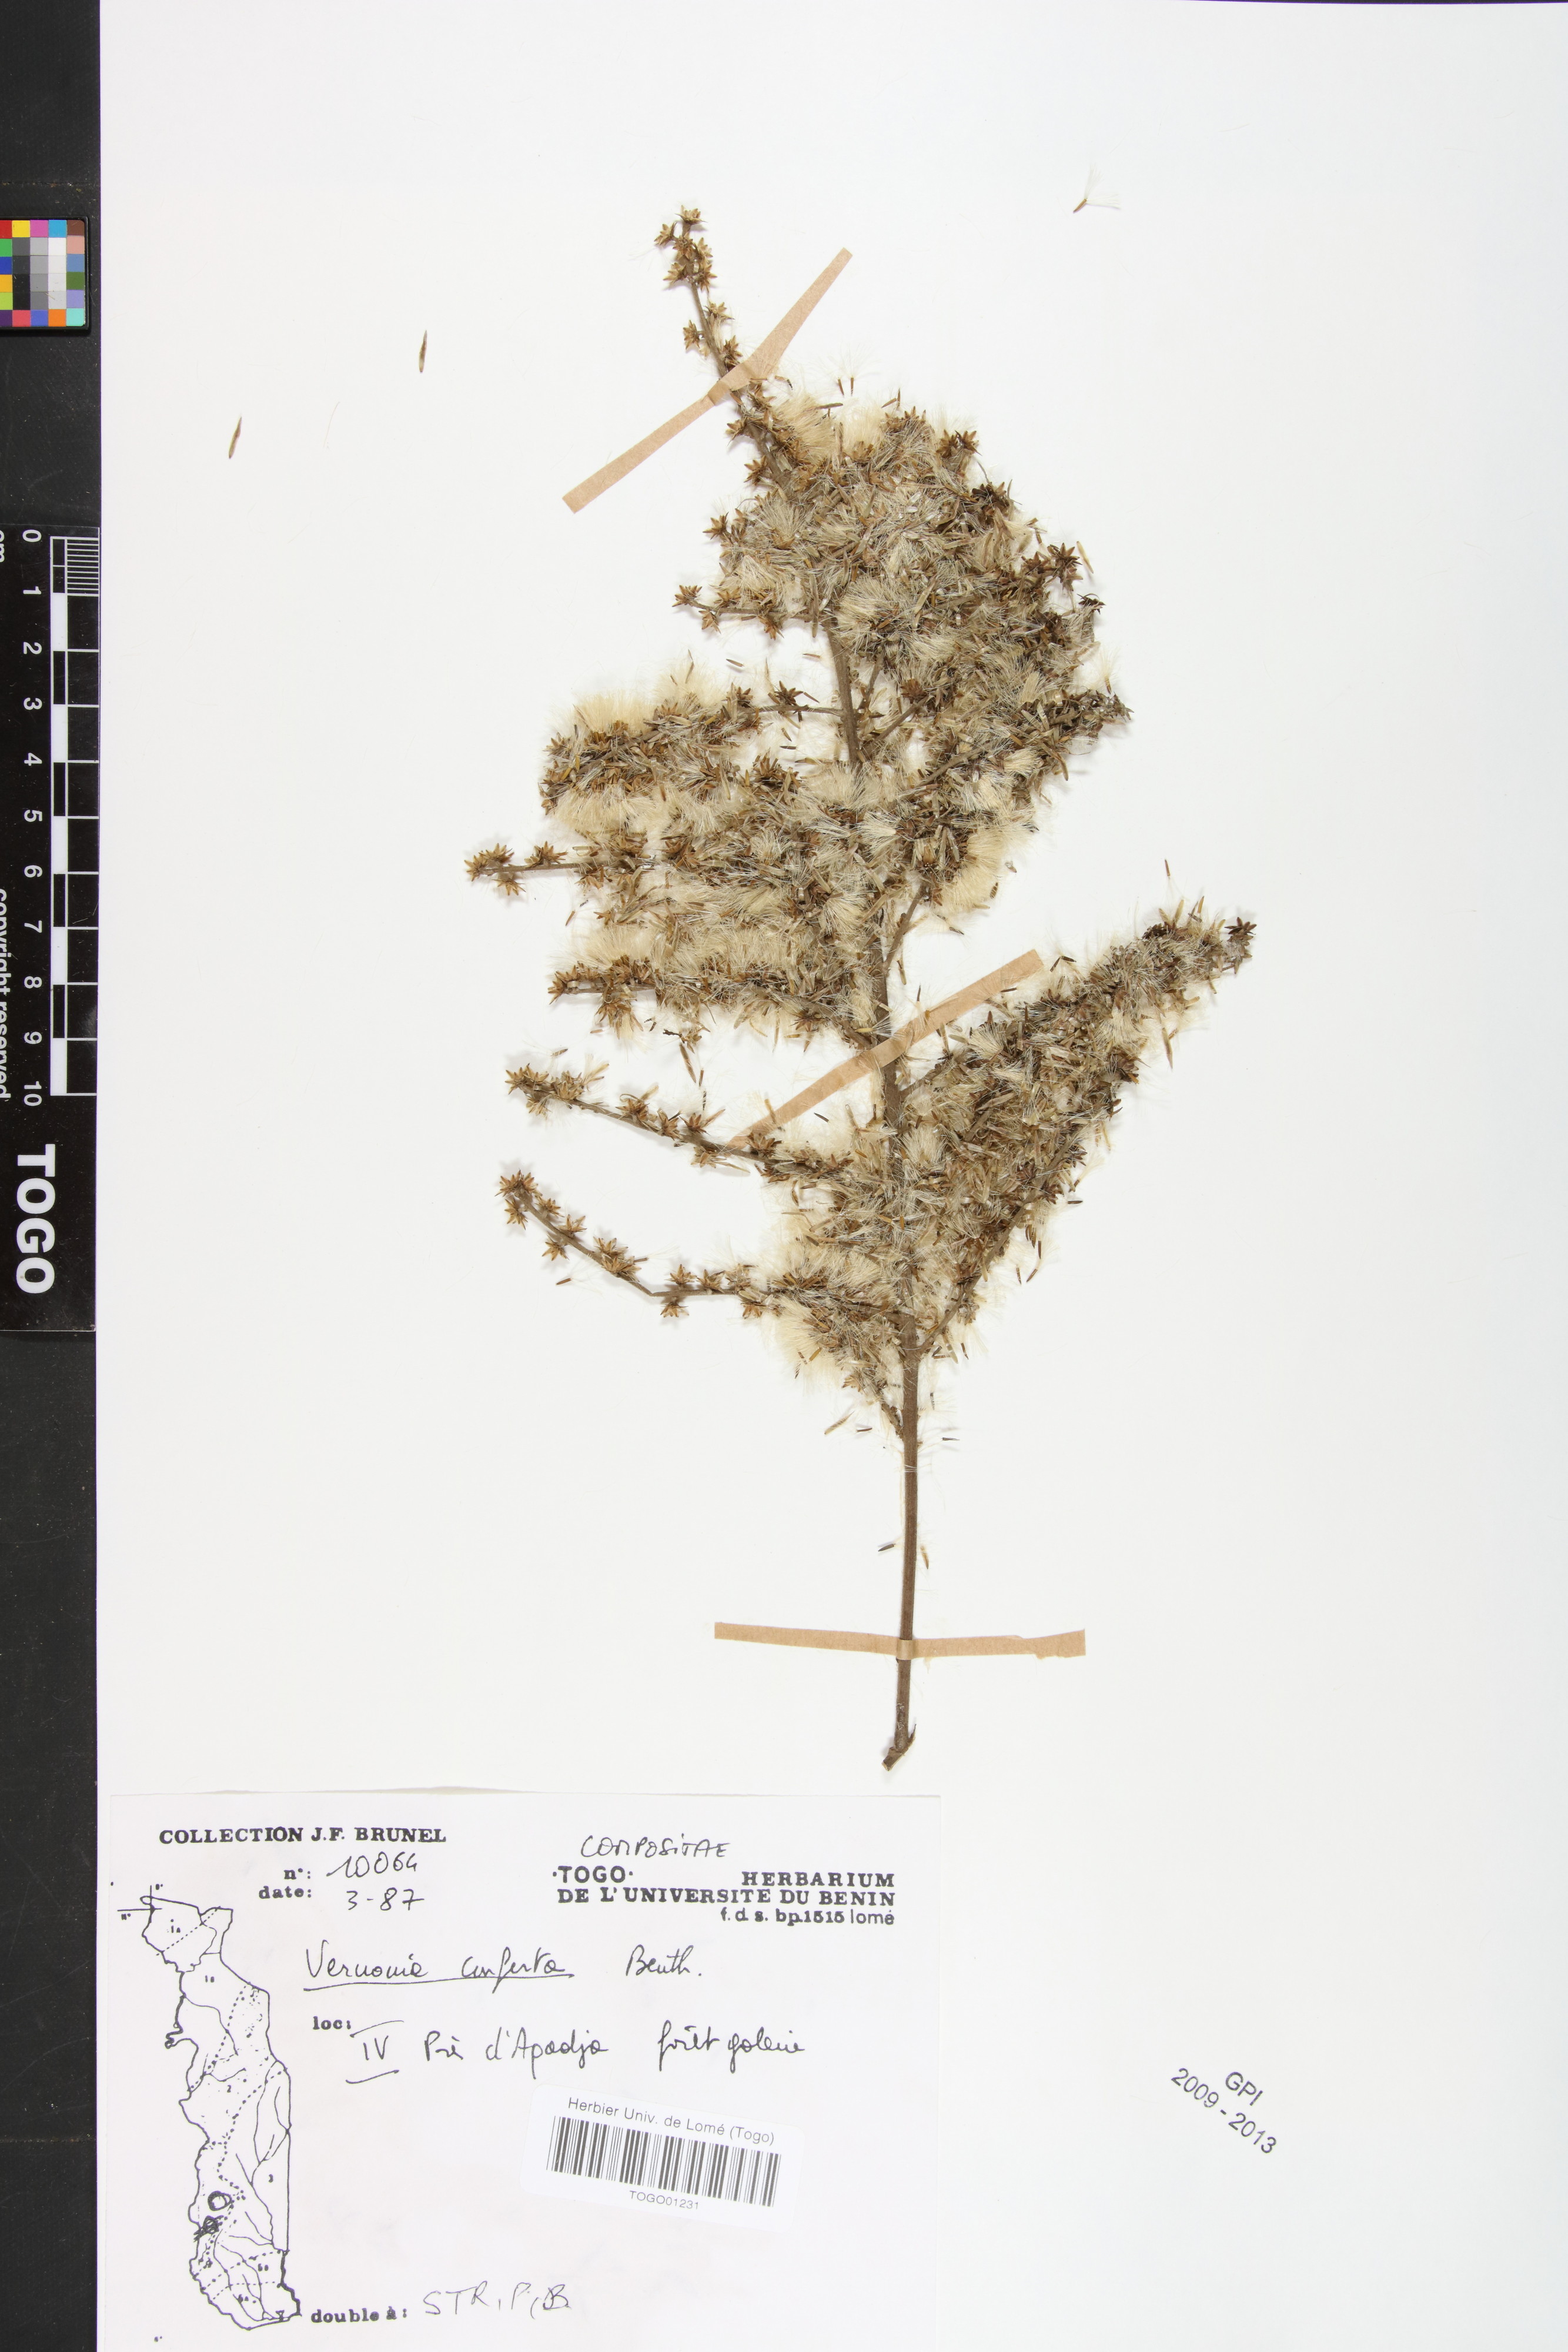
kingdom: Plantae
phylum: Tracheophyta
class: Magnoliopsida
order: Asterales
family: Asteraceae
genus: Monosis
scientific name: Monosis conferta
